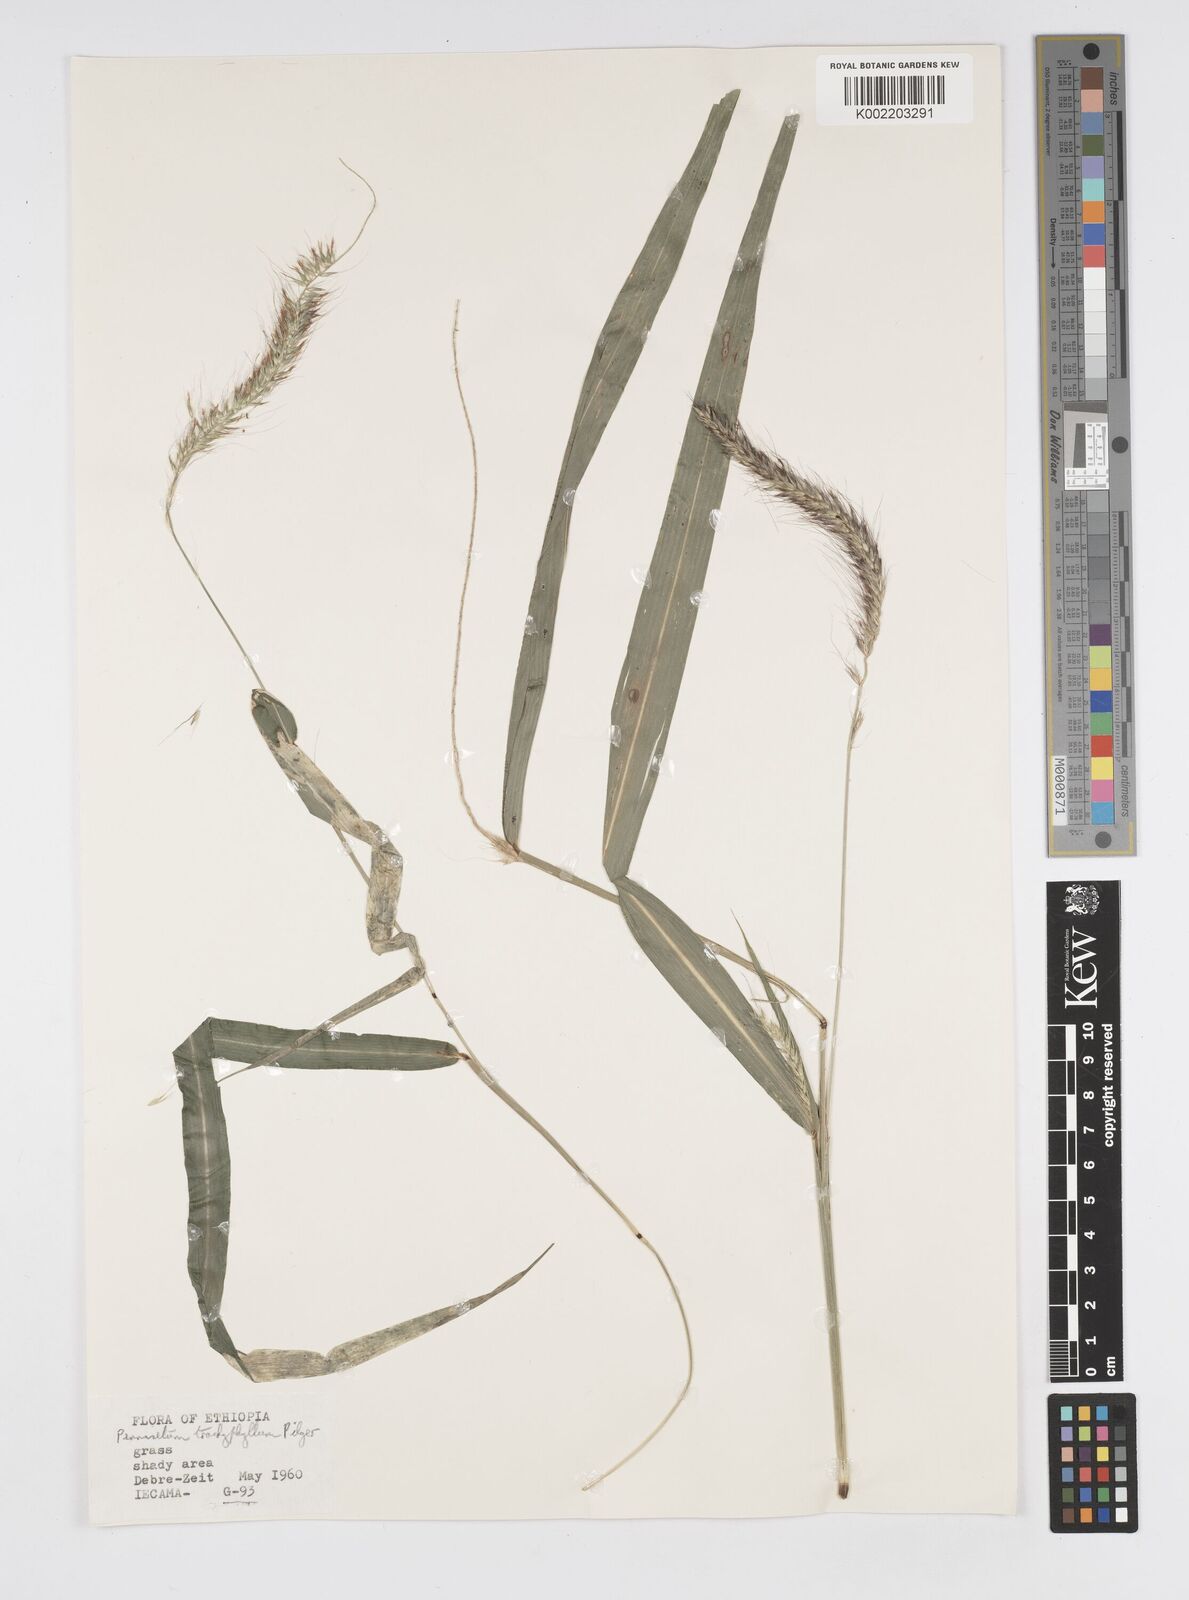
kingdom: Plantae
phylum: Tracheophyta
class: Liliopsida
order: Poales
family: Poaceae
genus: Cenchrus
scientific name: Cenchrus trachyphyllus
